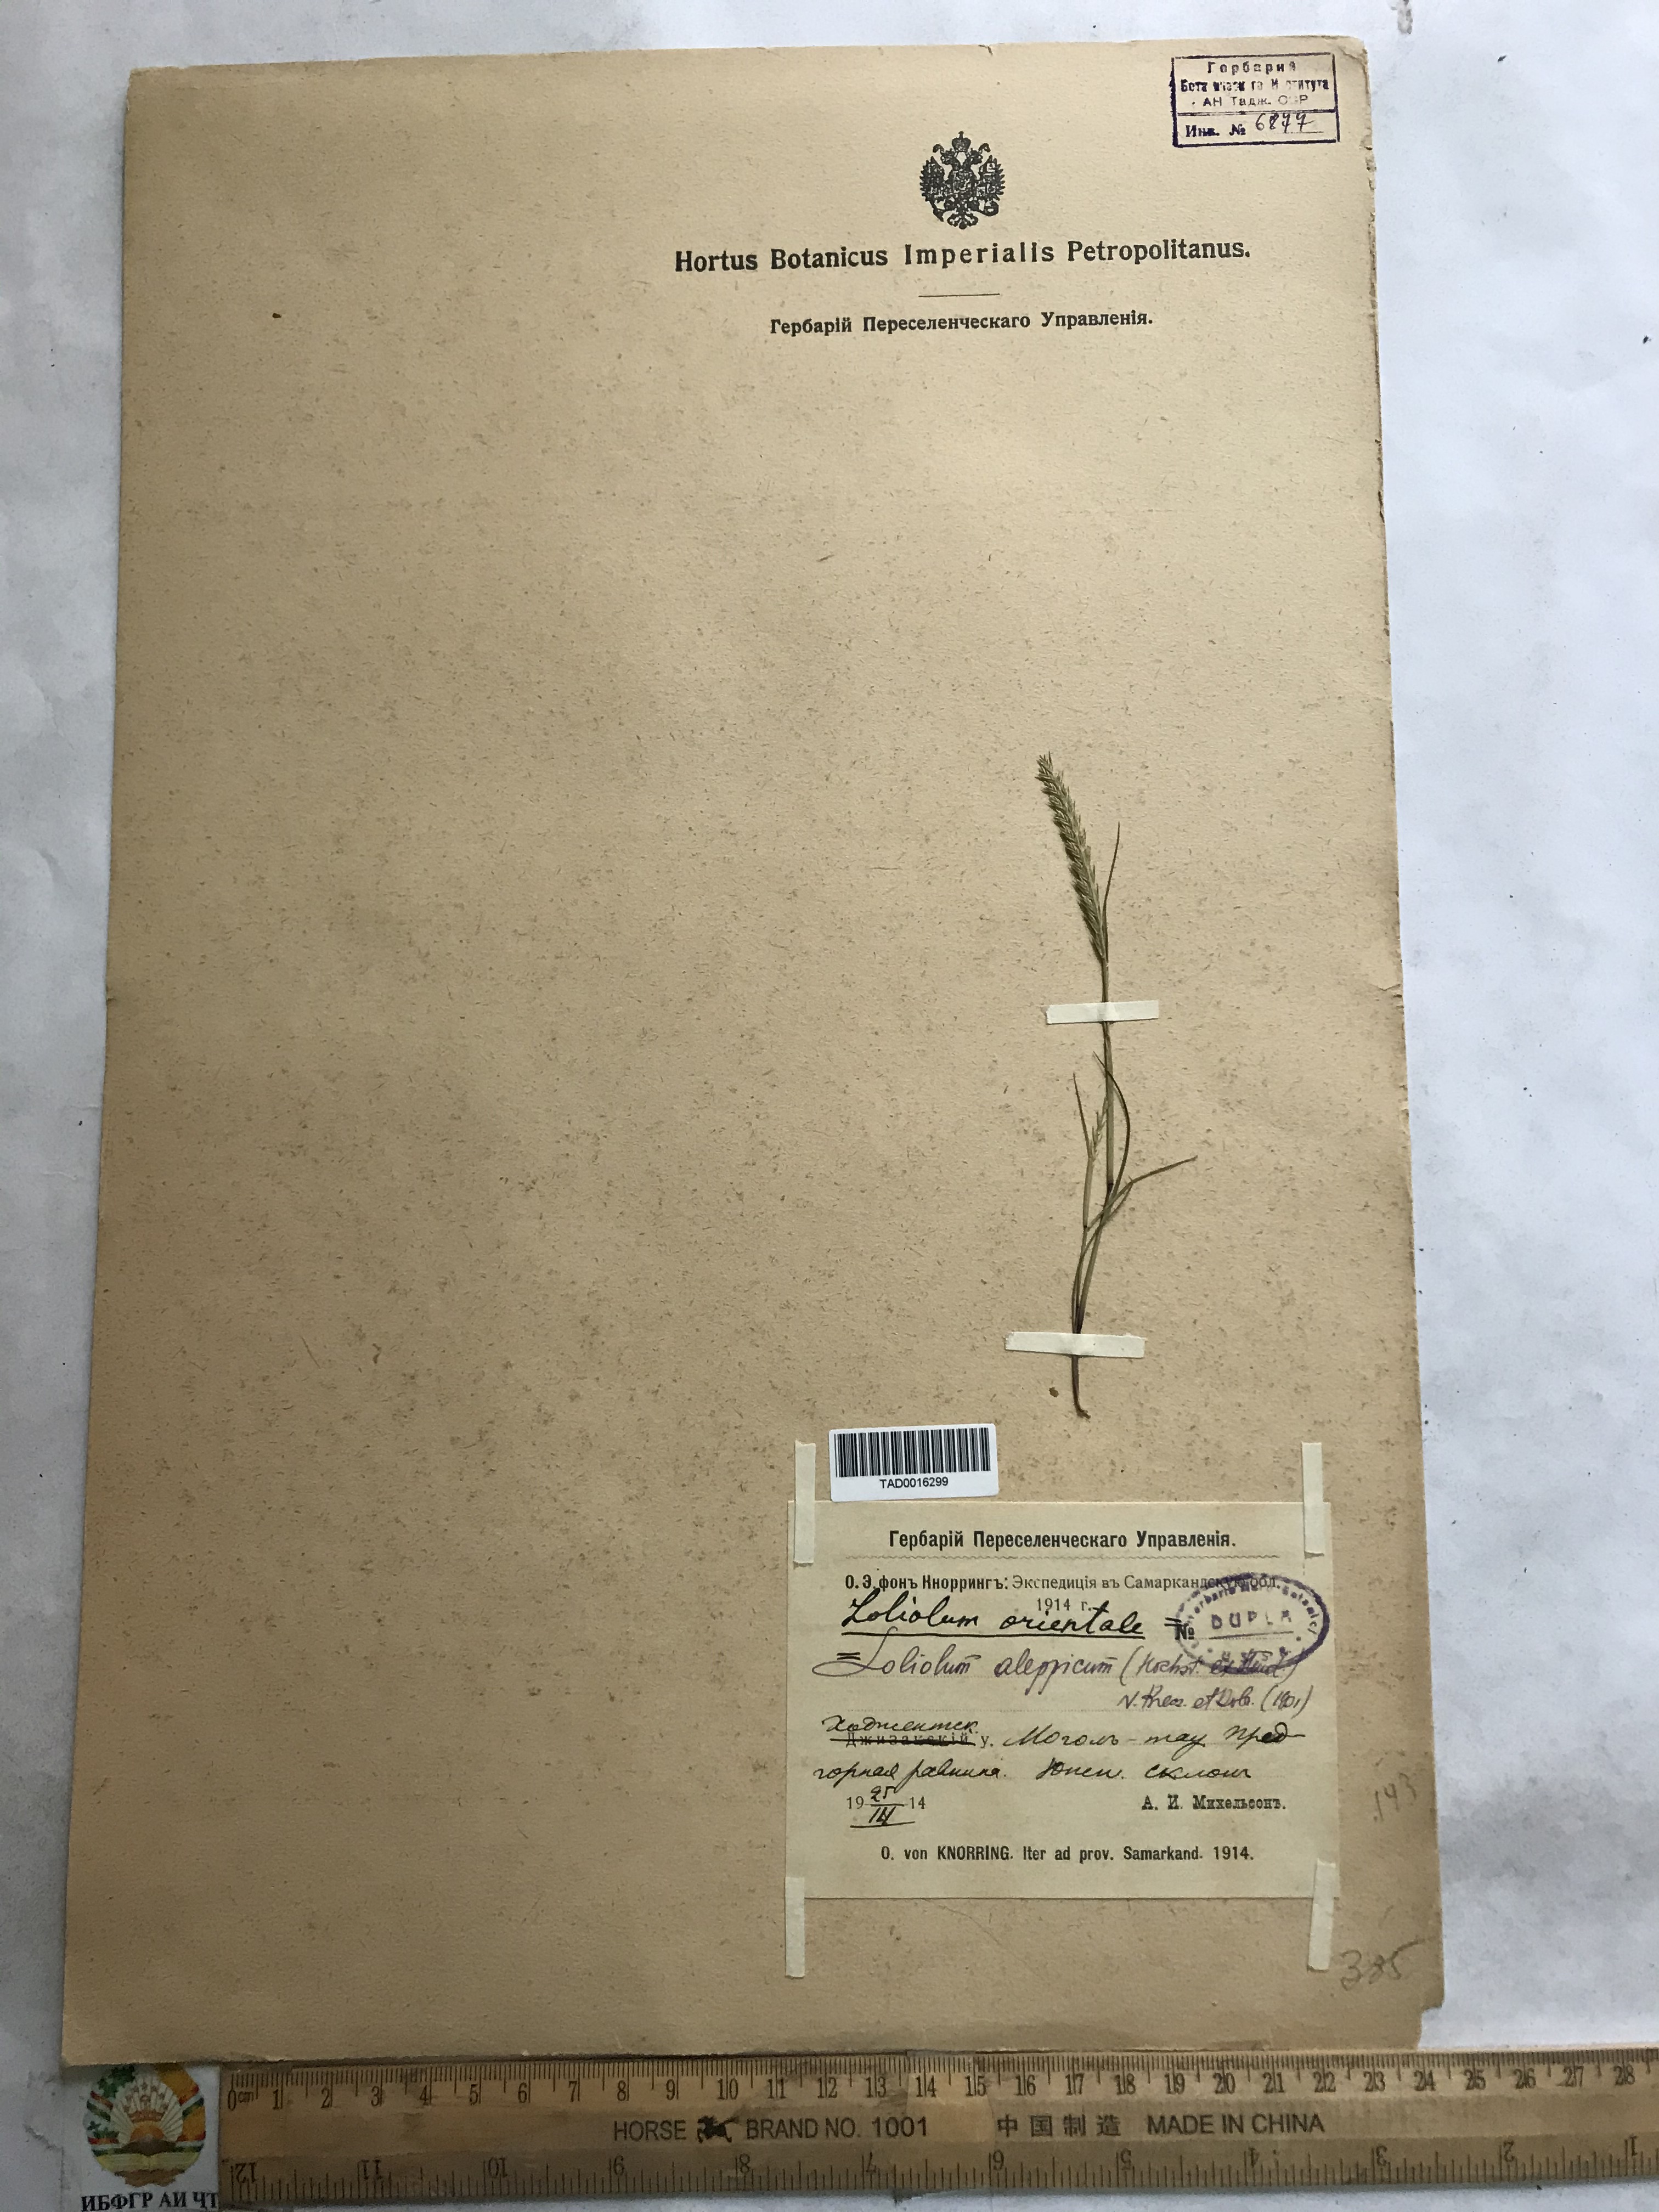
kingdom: Plantae
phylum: Tracheophyta
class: Liliopsida
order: Poales
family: Poaceae
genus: Festuca
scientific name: Festuca orientalis
